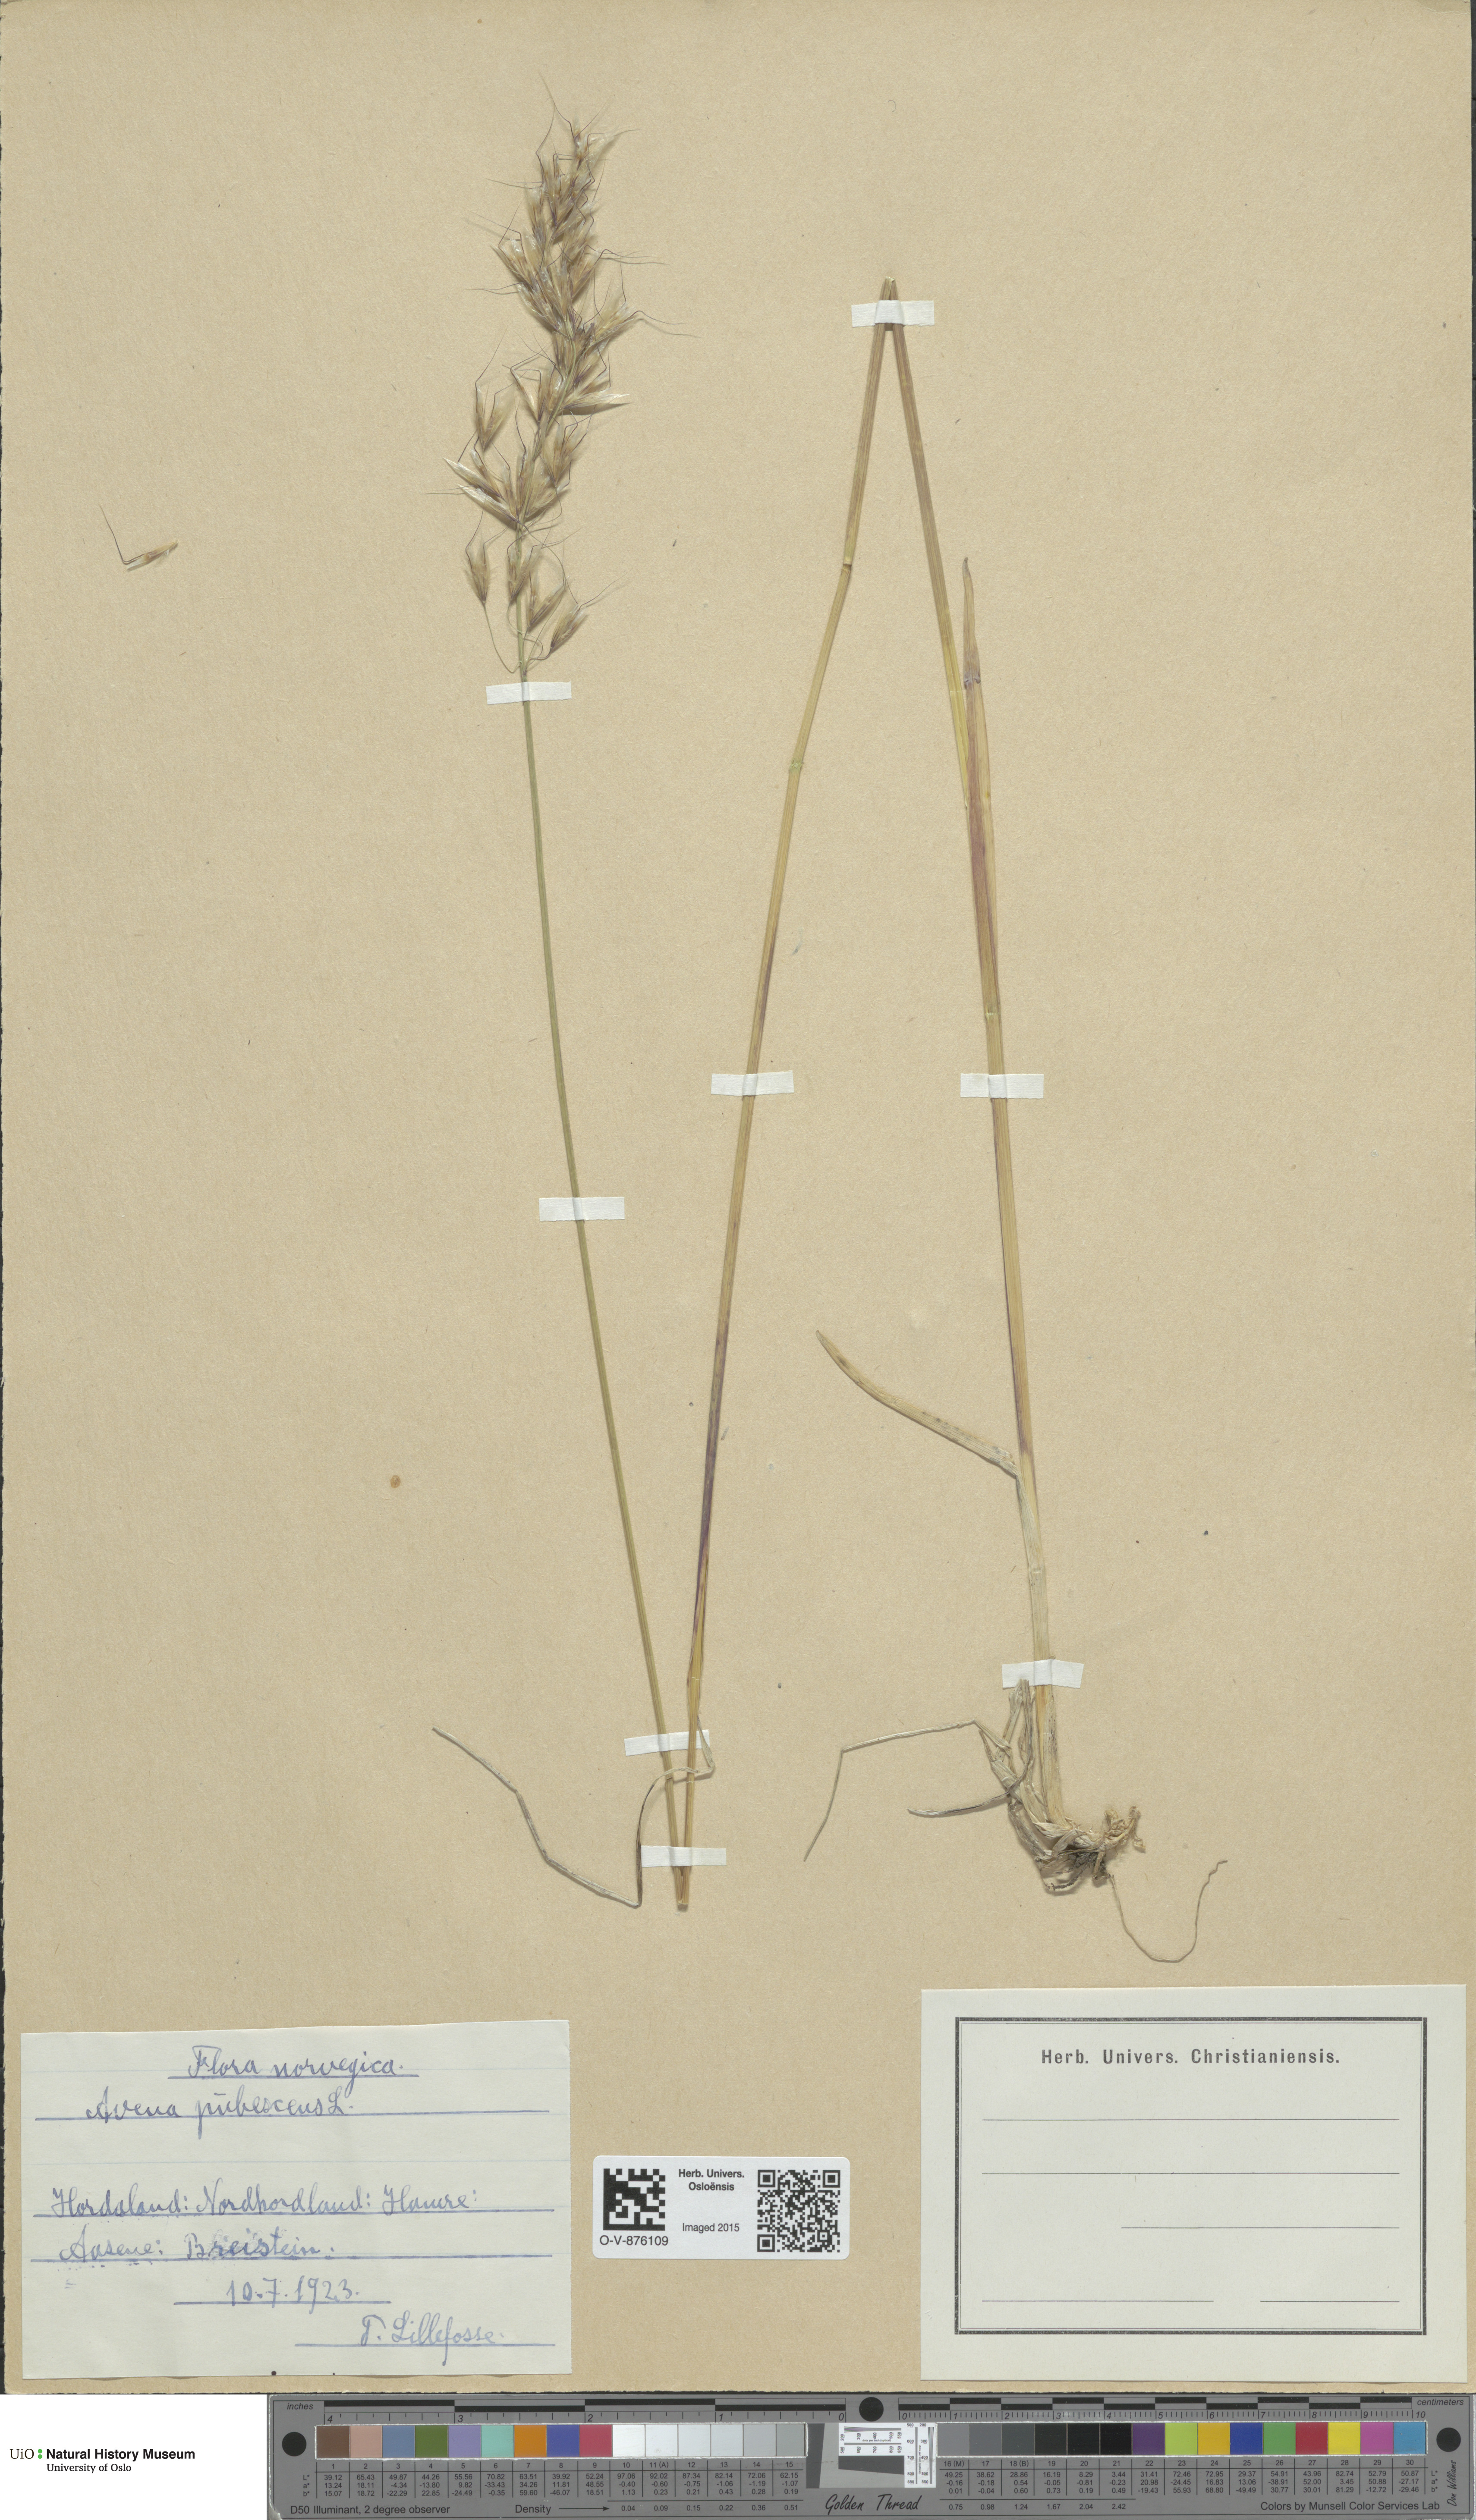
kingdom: Plantae
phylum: Tracheophyta
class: Liliopsida
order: Poales
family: Poaceae
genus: Avenula
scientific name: Avenula pubescens
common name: Downy alpine oatgrass
